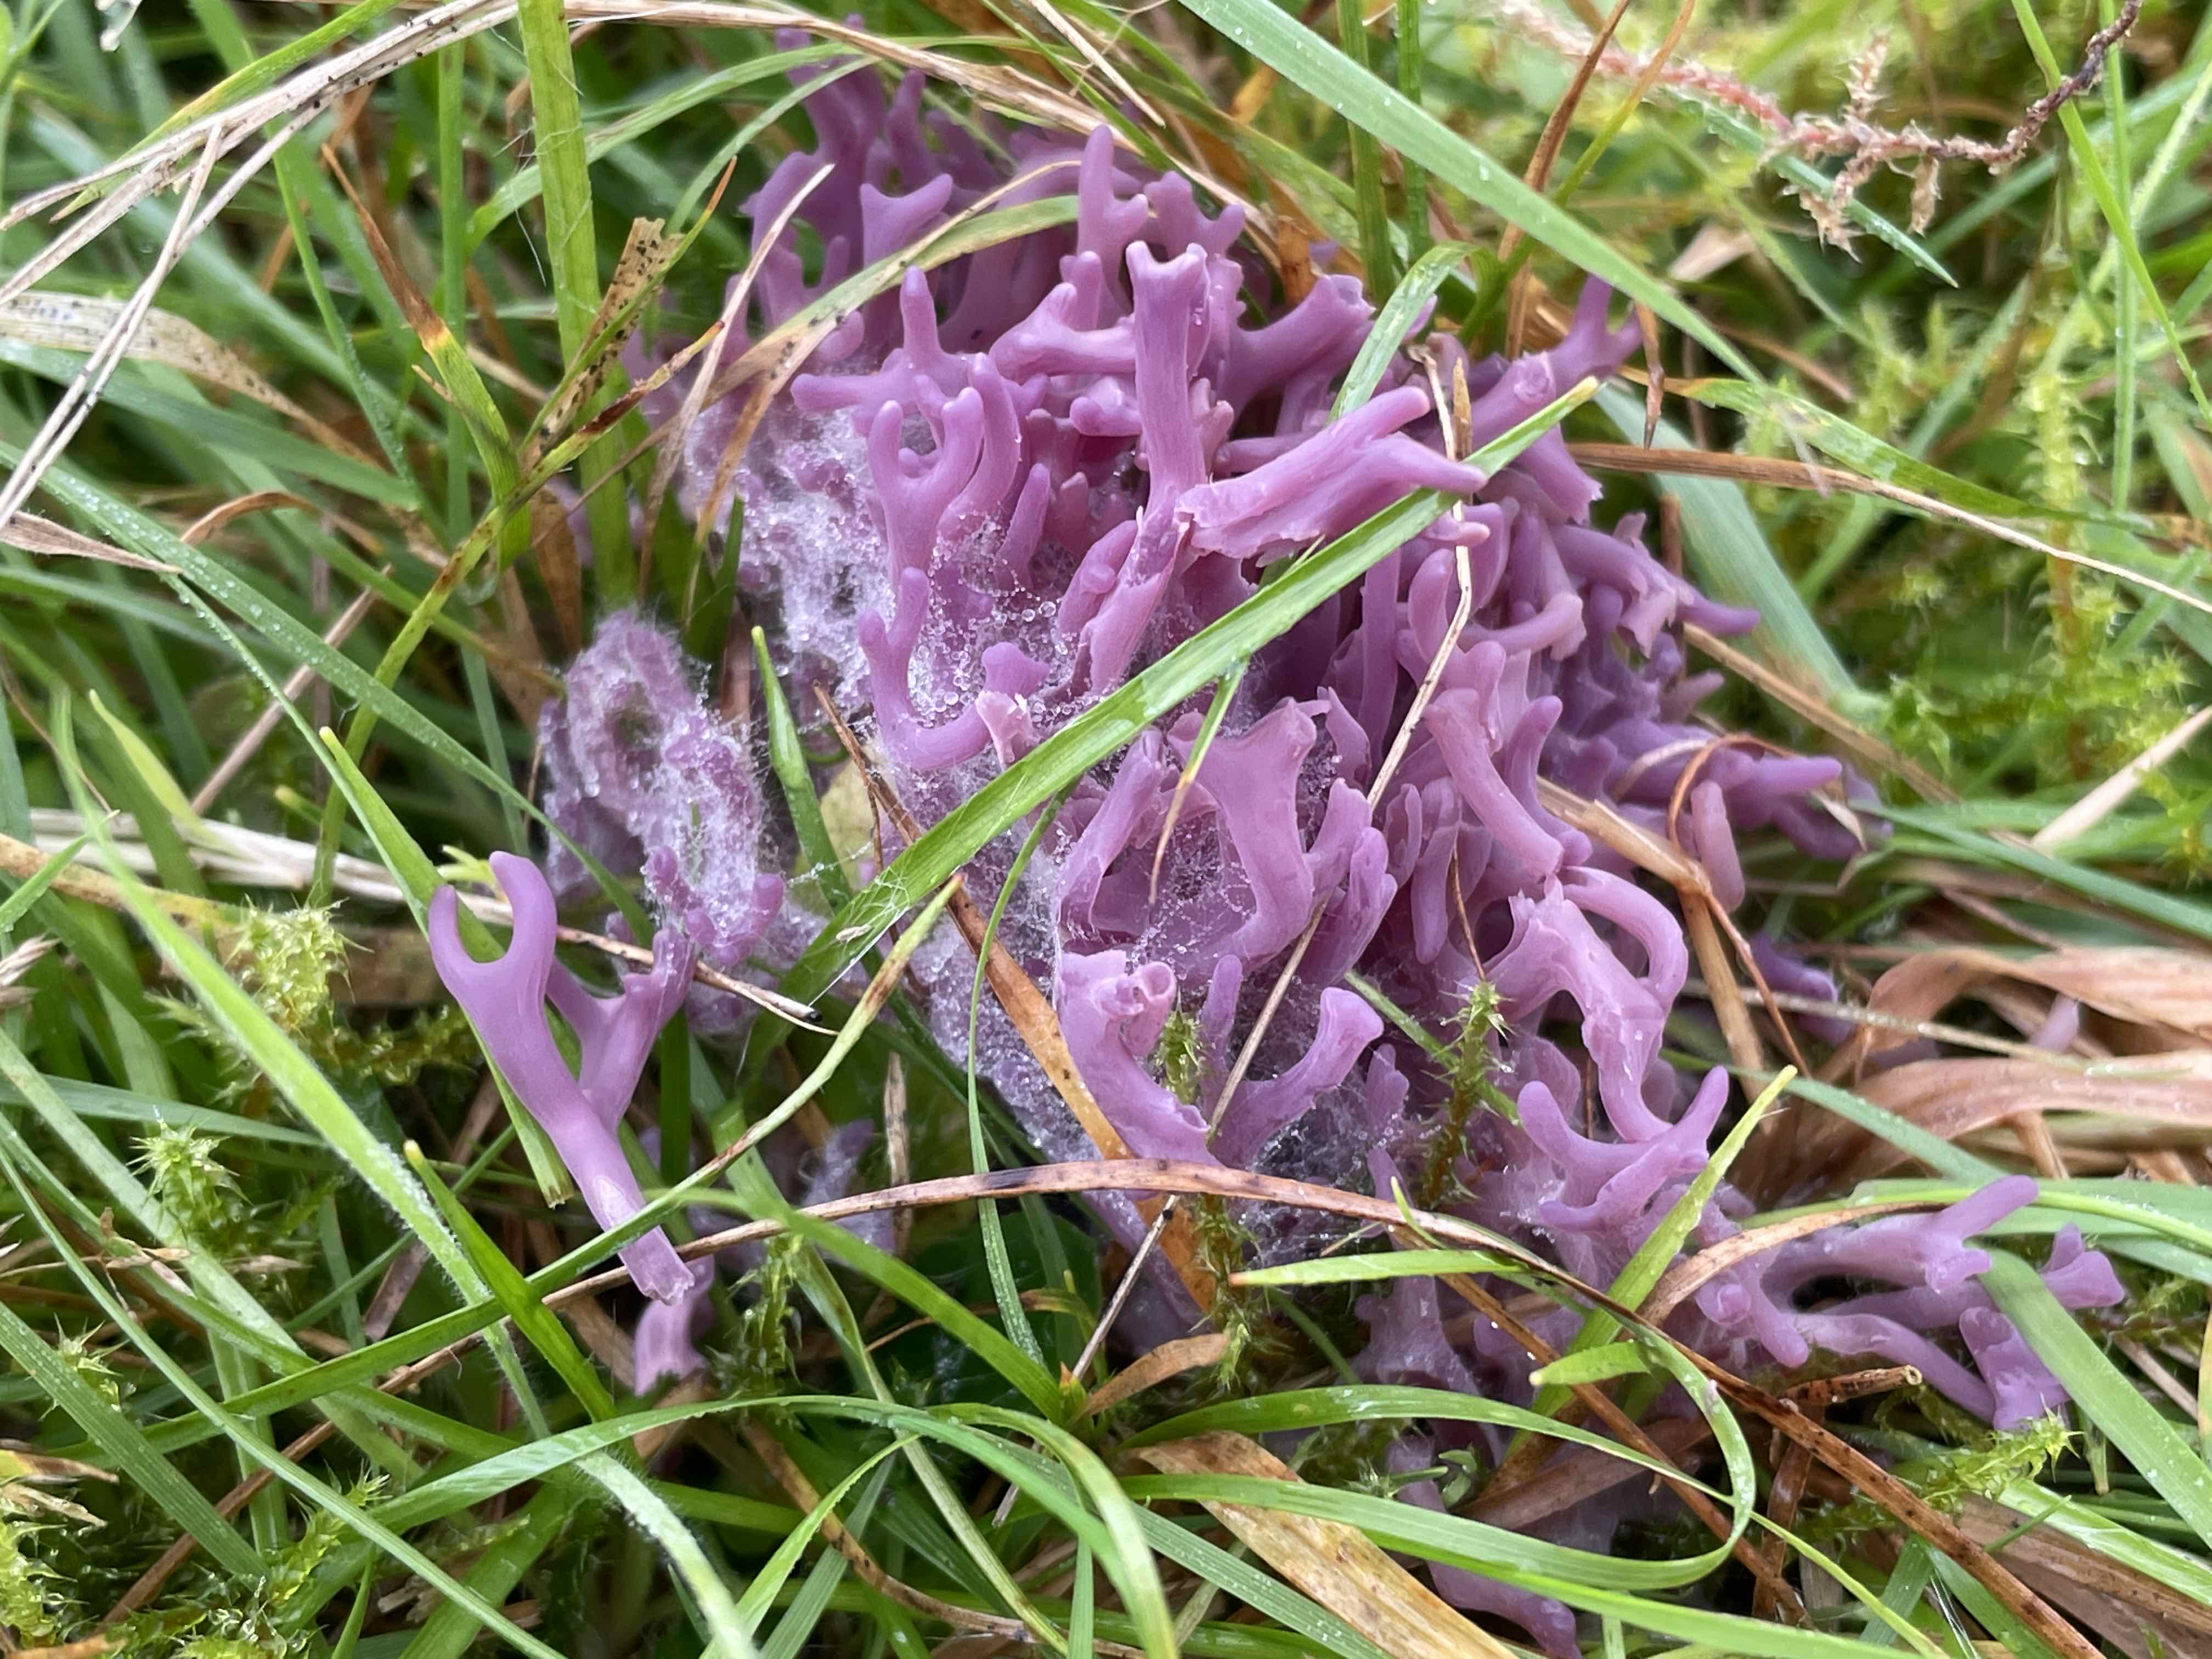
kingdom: Fungi
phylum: Basidiomycota
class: Agaricomycetes
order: Agaricales
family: Clavariaceae
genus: Clavaria
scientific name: Clavaria zollingeri
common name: purpur-køllesvamp
